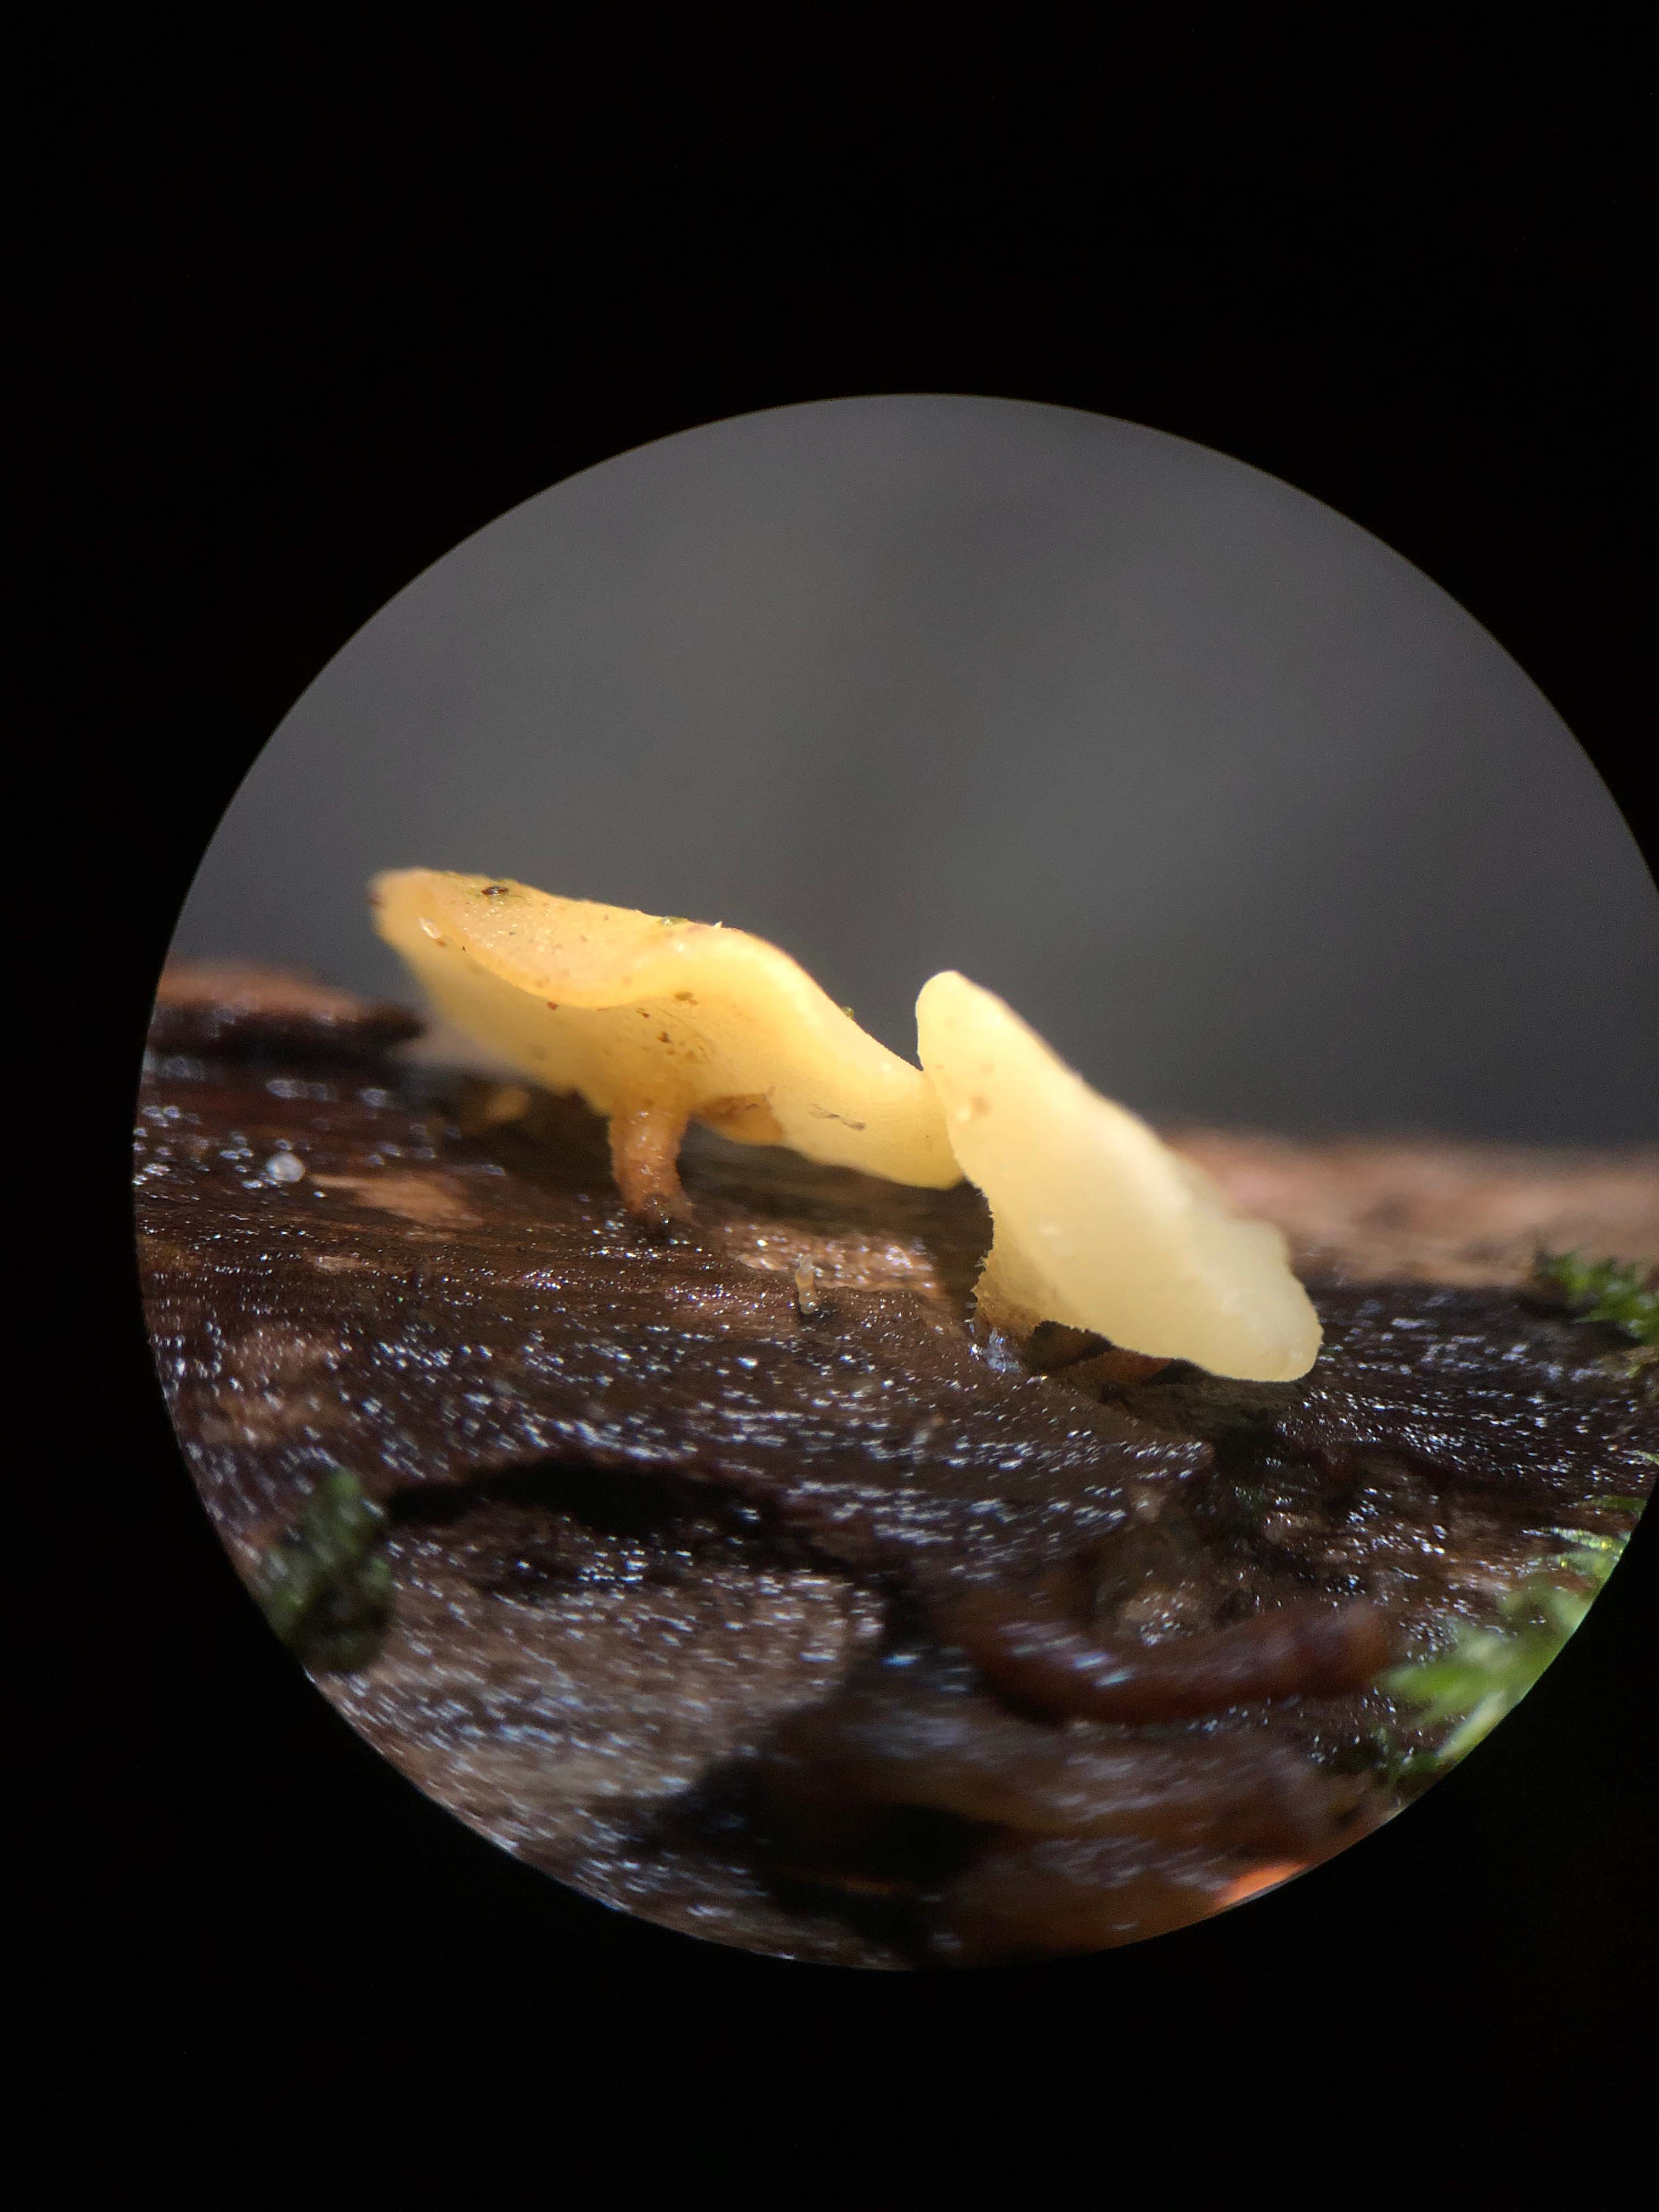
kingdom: Fungi
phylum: Ascomycota
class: Leotiomycetes
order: Helotiales
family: Helotiaceae
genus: Hymenoscyphus
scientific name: Hymenoscyphus calyculus
